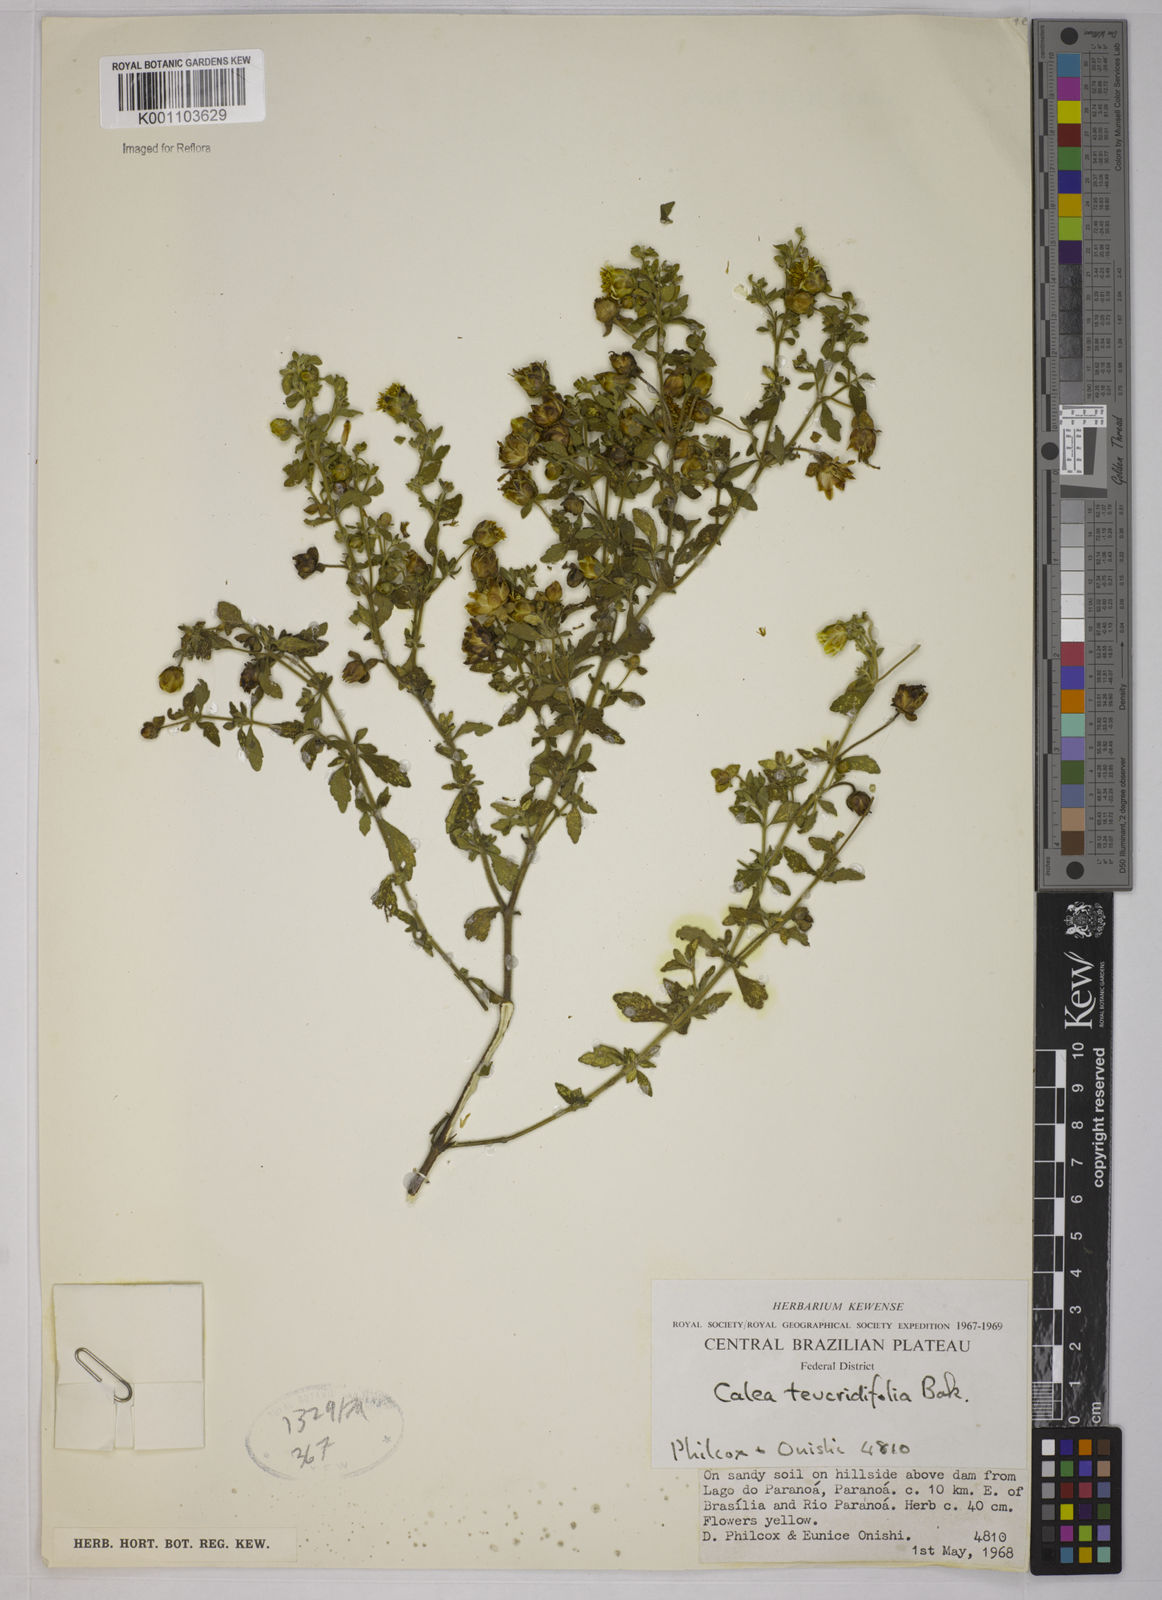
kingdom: Plantae
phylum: Tracheophyta
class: Magnoliopsida
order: Asterales
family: Asteraceae
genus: Calea
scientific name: Calea teucriifolia
